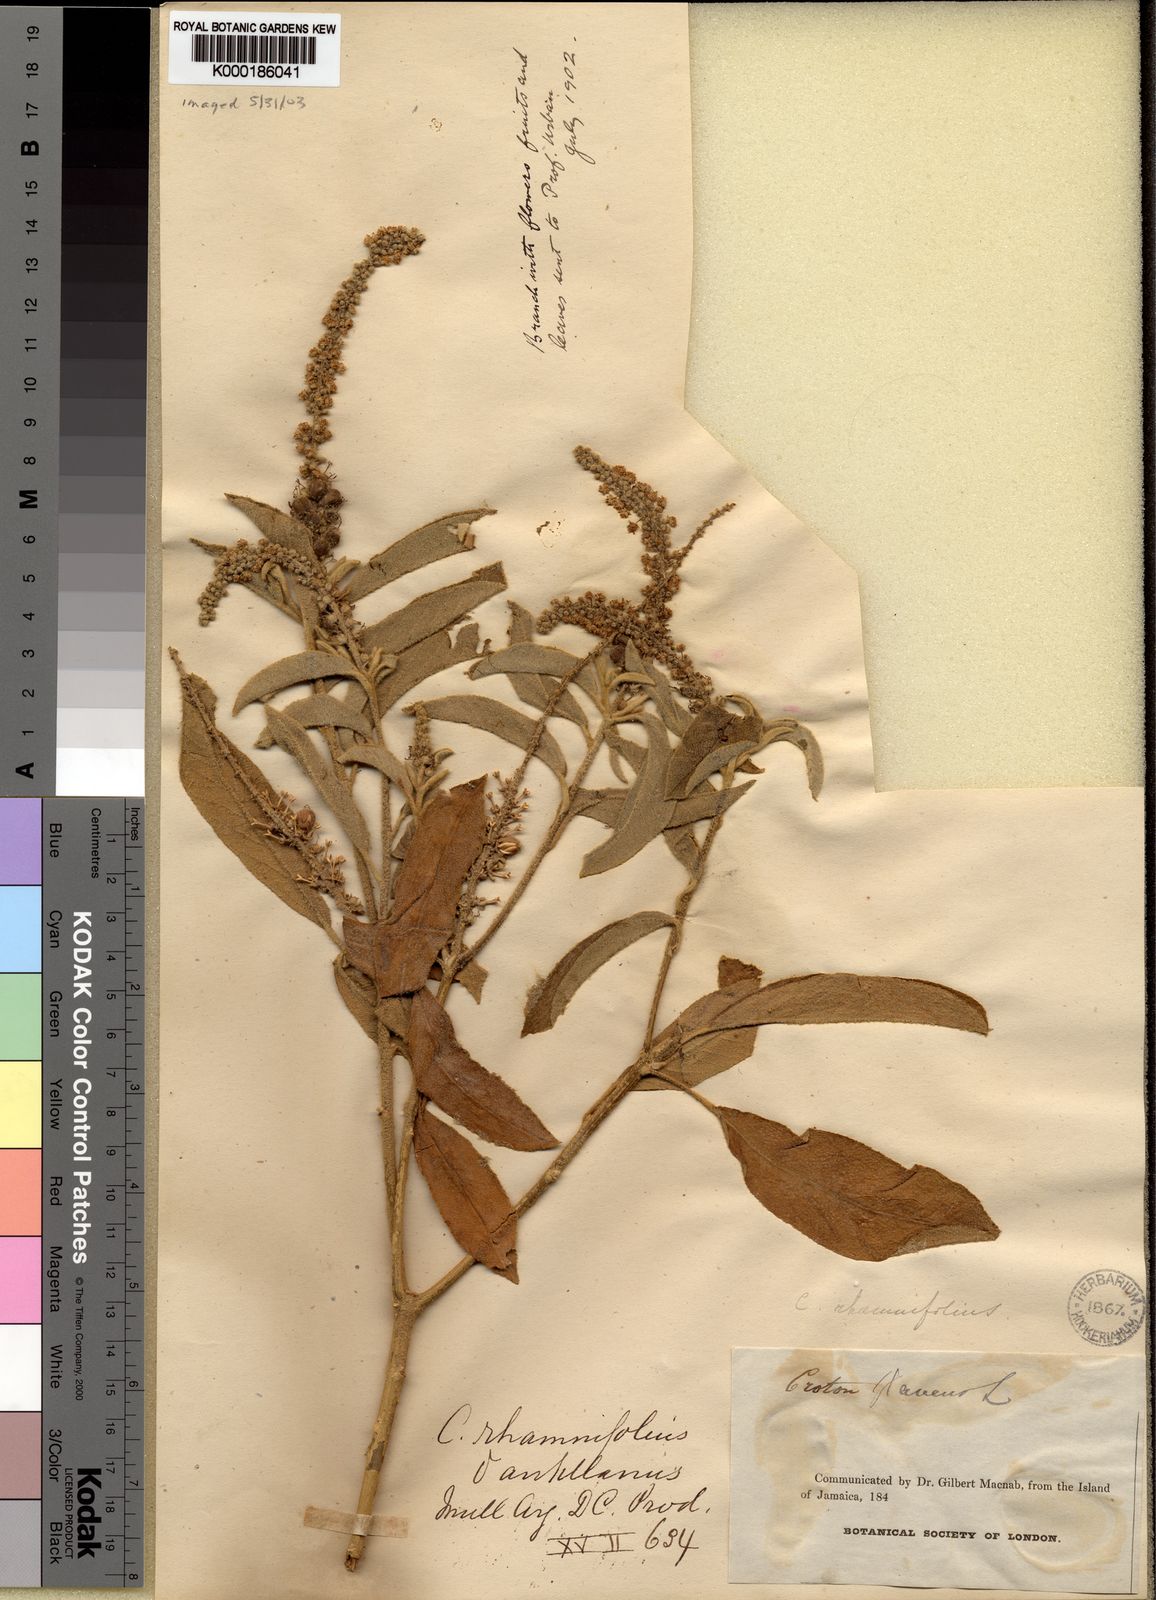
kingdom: Plantae
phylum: Tracheophyta
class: Magnoliopsida
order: Malpighiales
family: Euphorbiaceae
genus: Croton
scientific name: Croton flavens
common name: Yellow balsam
